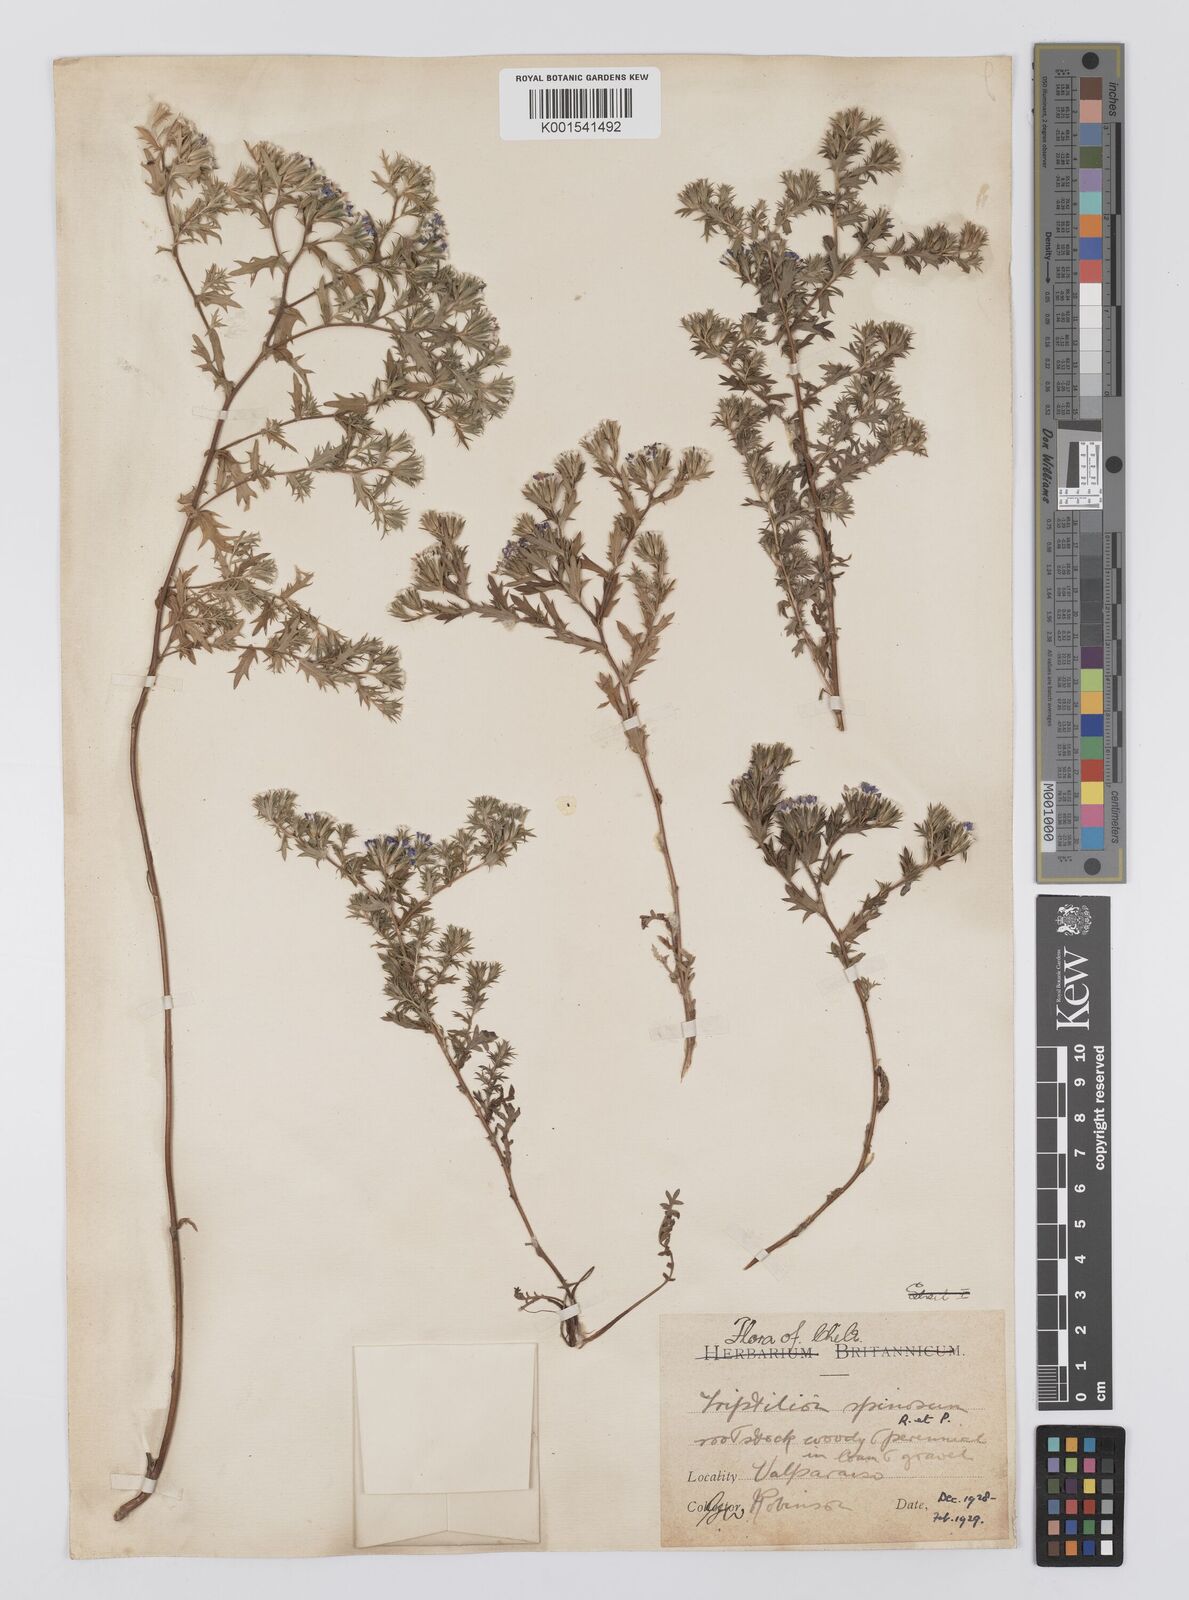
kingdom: Plantae
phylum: Tracheophyta
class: Magnoliopsida
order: Asterales
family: Asteraceae
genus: Triptilion
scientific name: Triptilion spinosum
